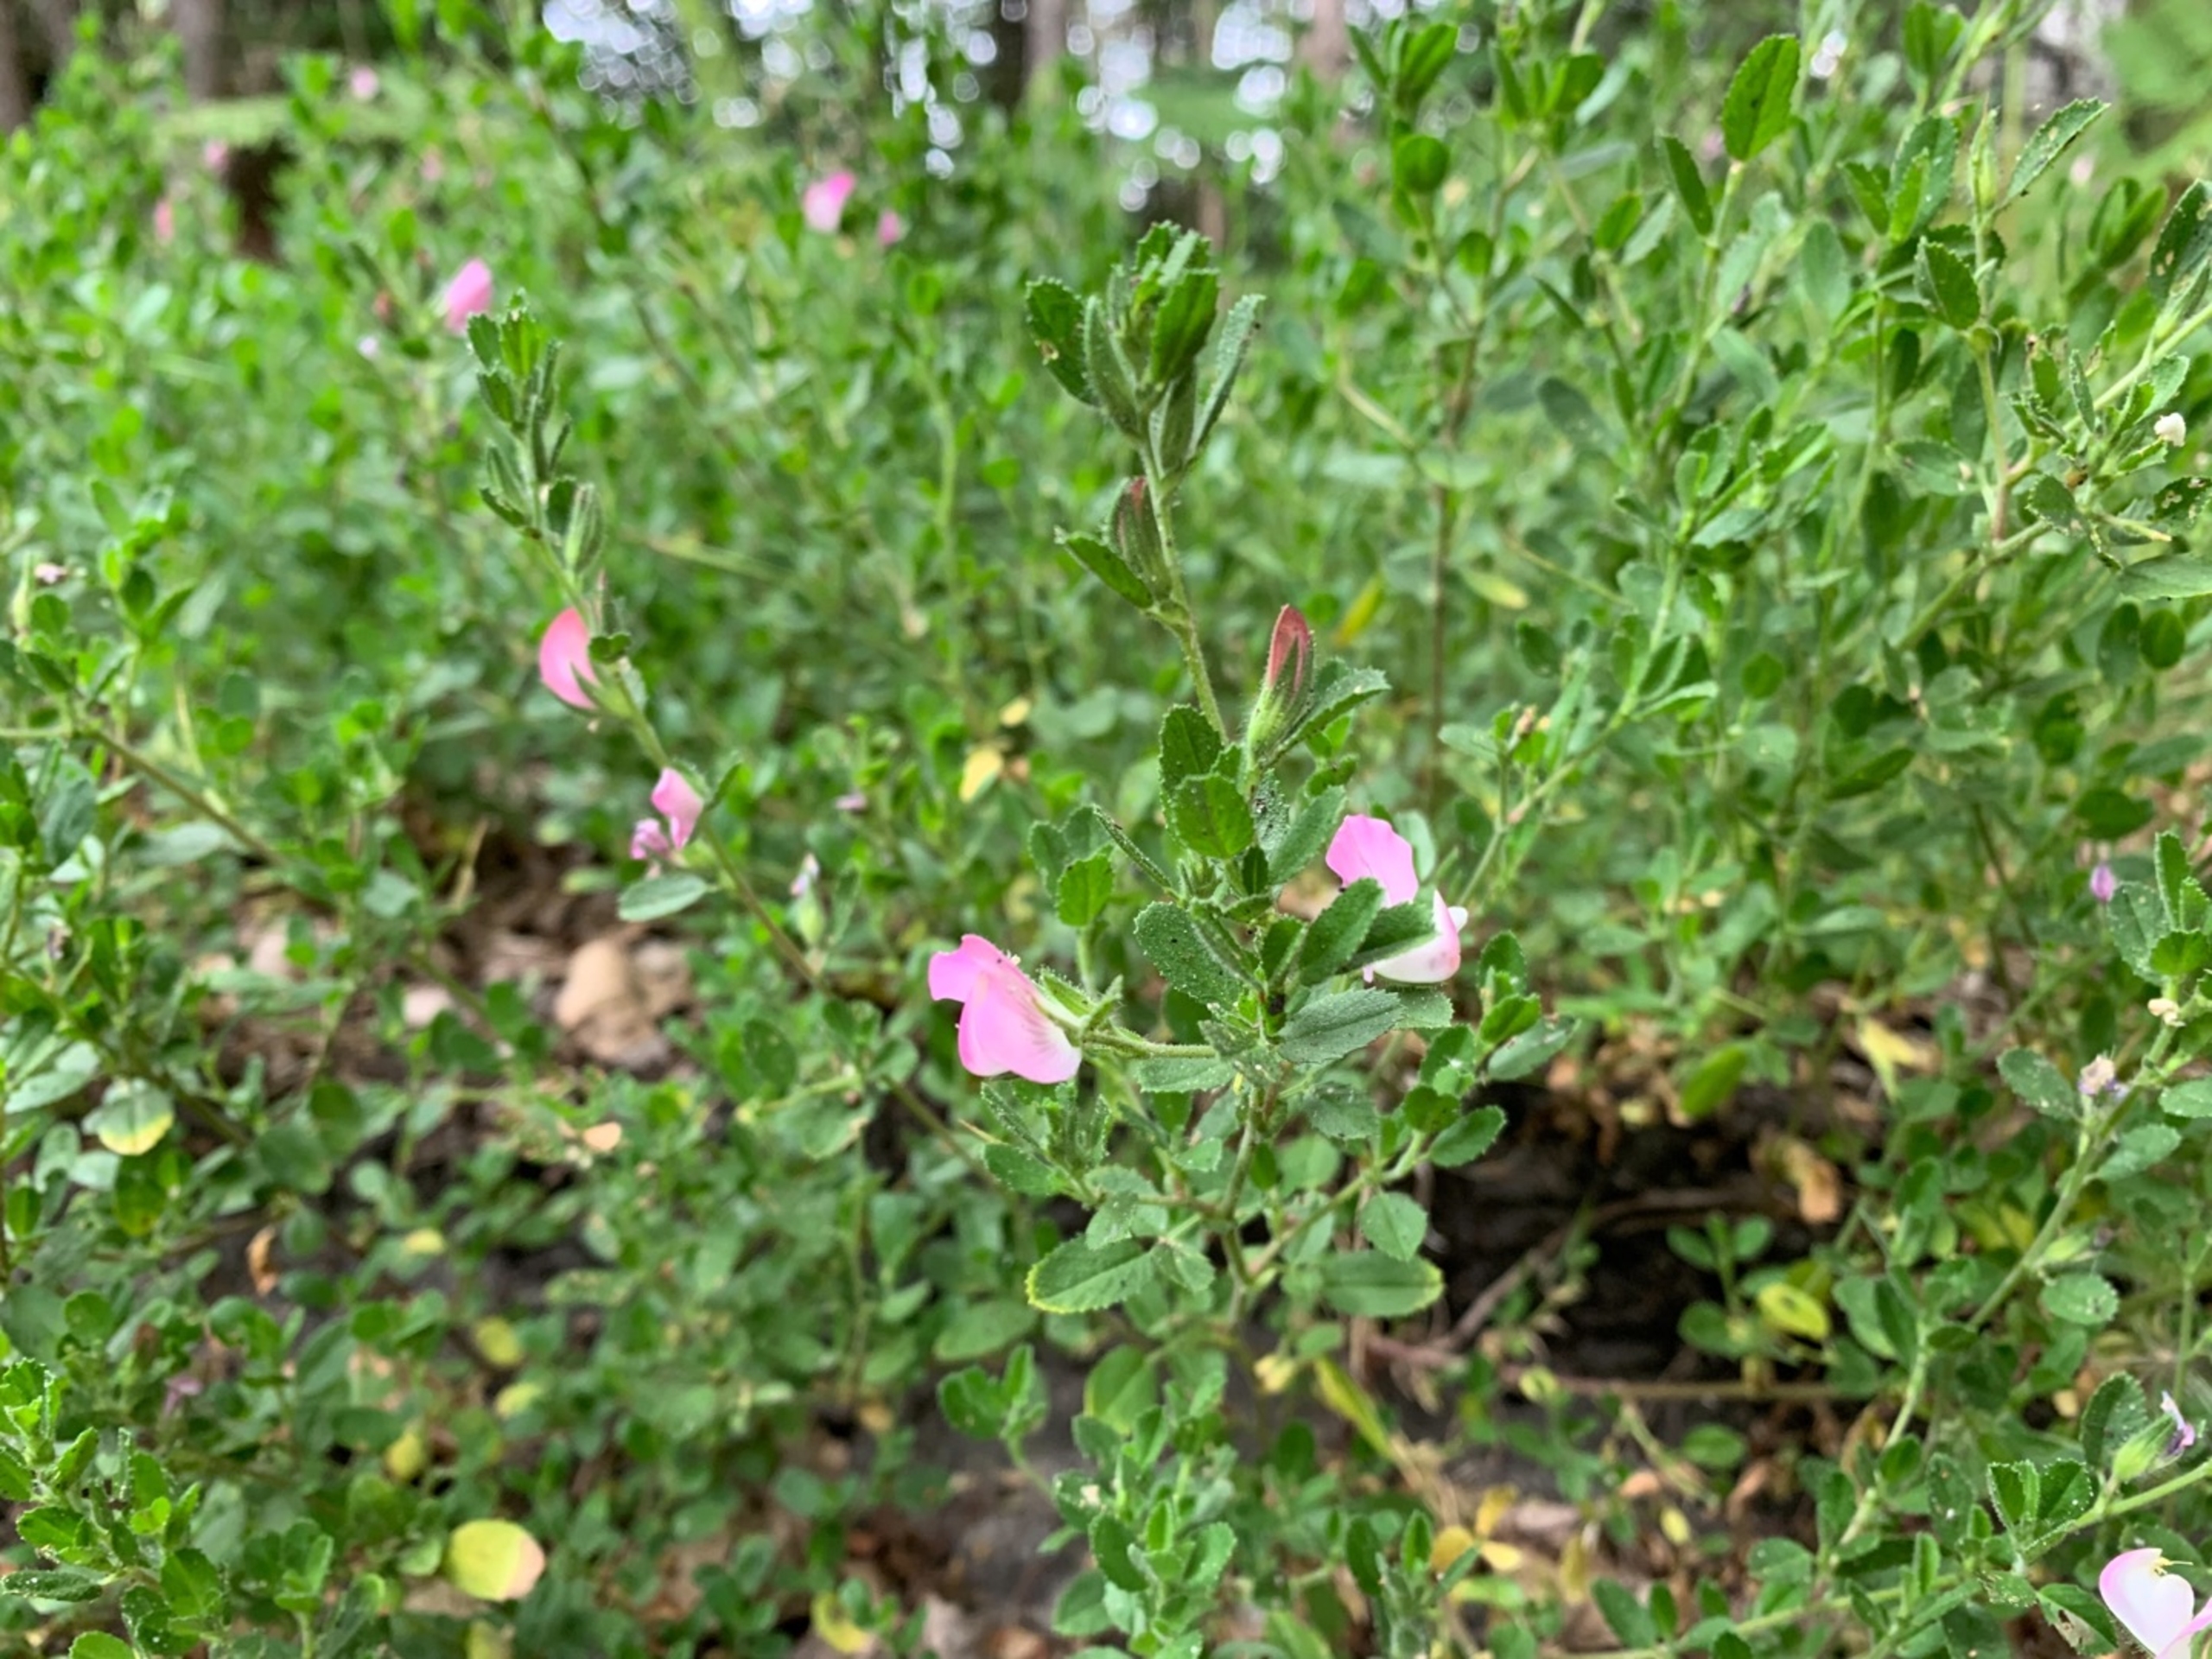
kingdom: Plantae
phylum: Tracheophyta
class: Magnoliopsida
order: Fabales
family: Fabaceae
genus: Ononis
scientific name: Ononis spinosa
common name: Mark-krageklo
